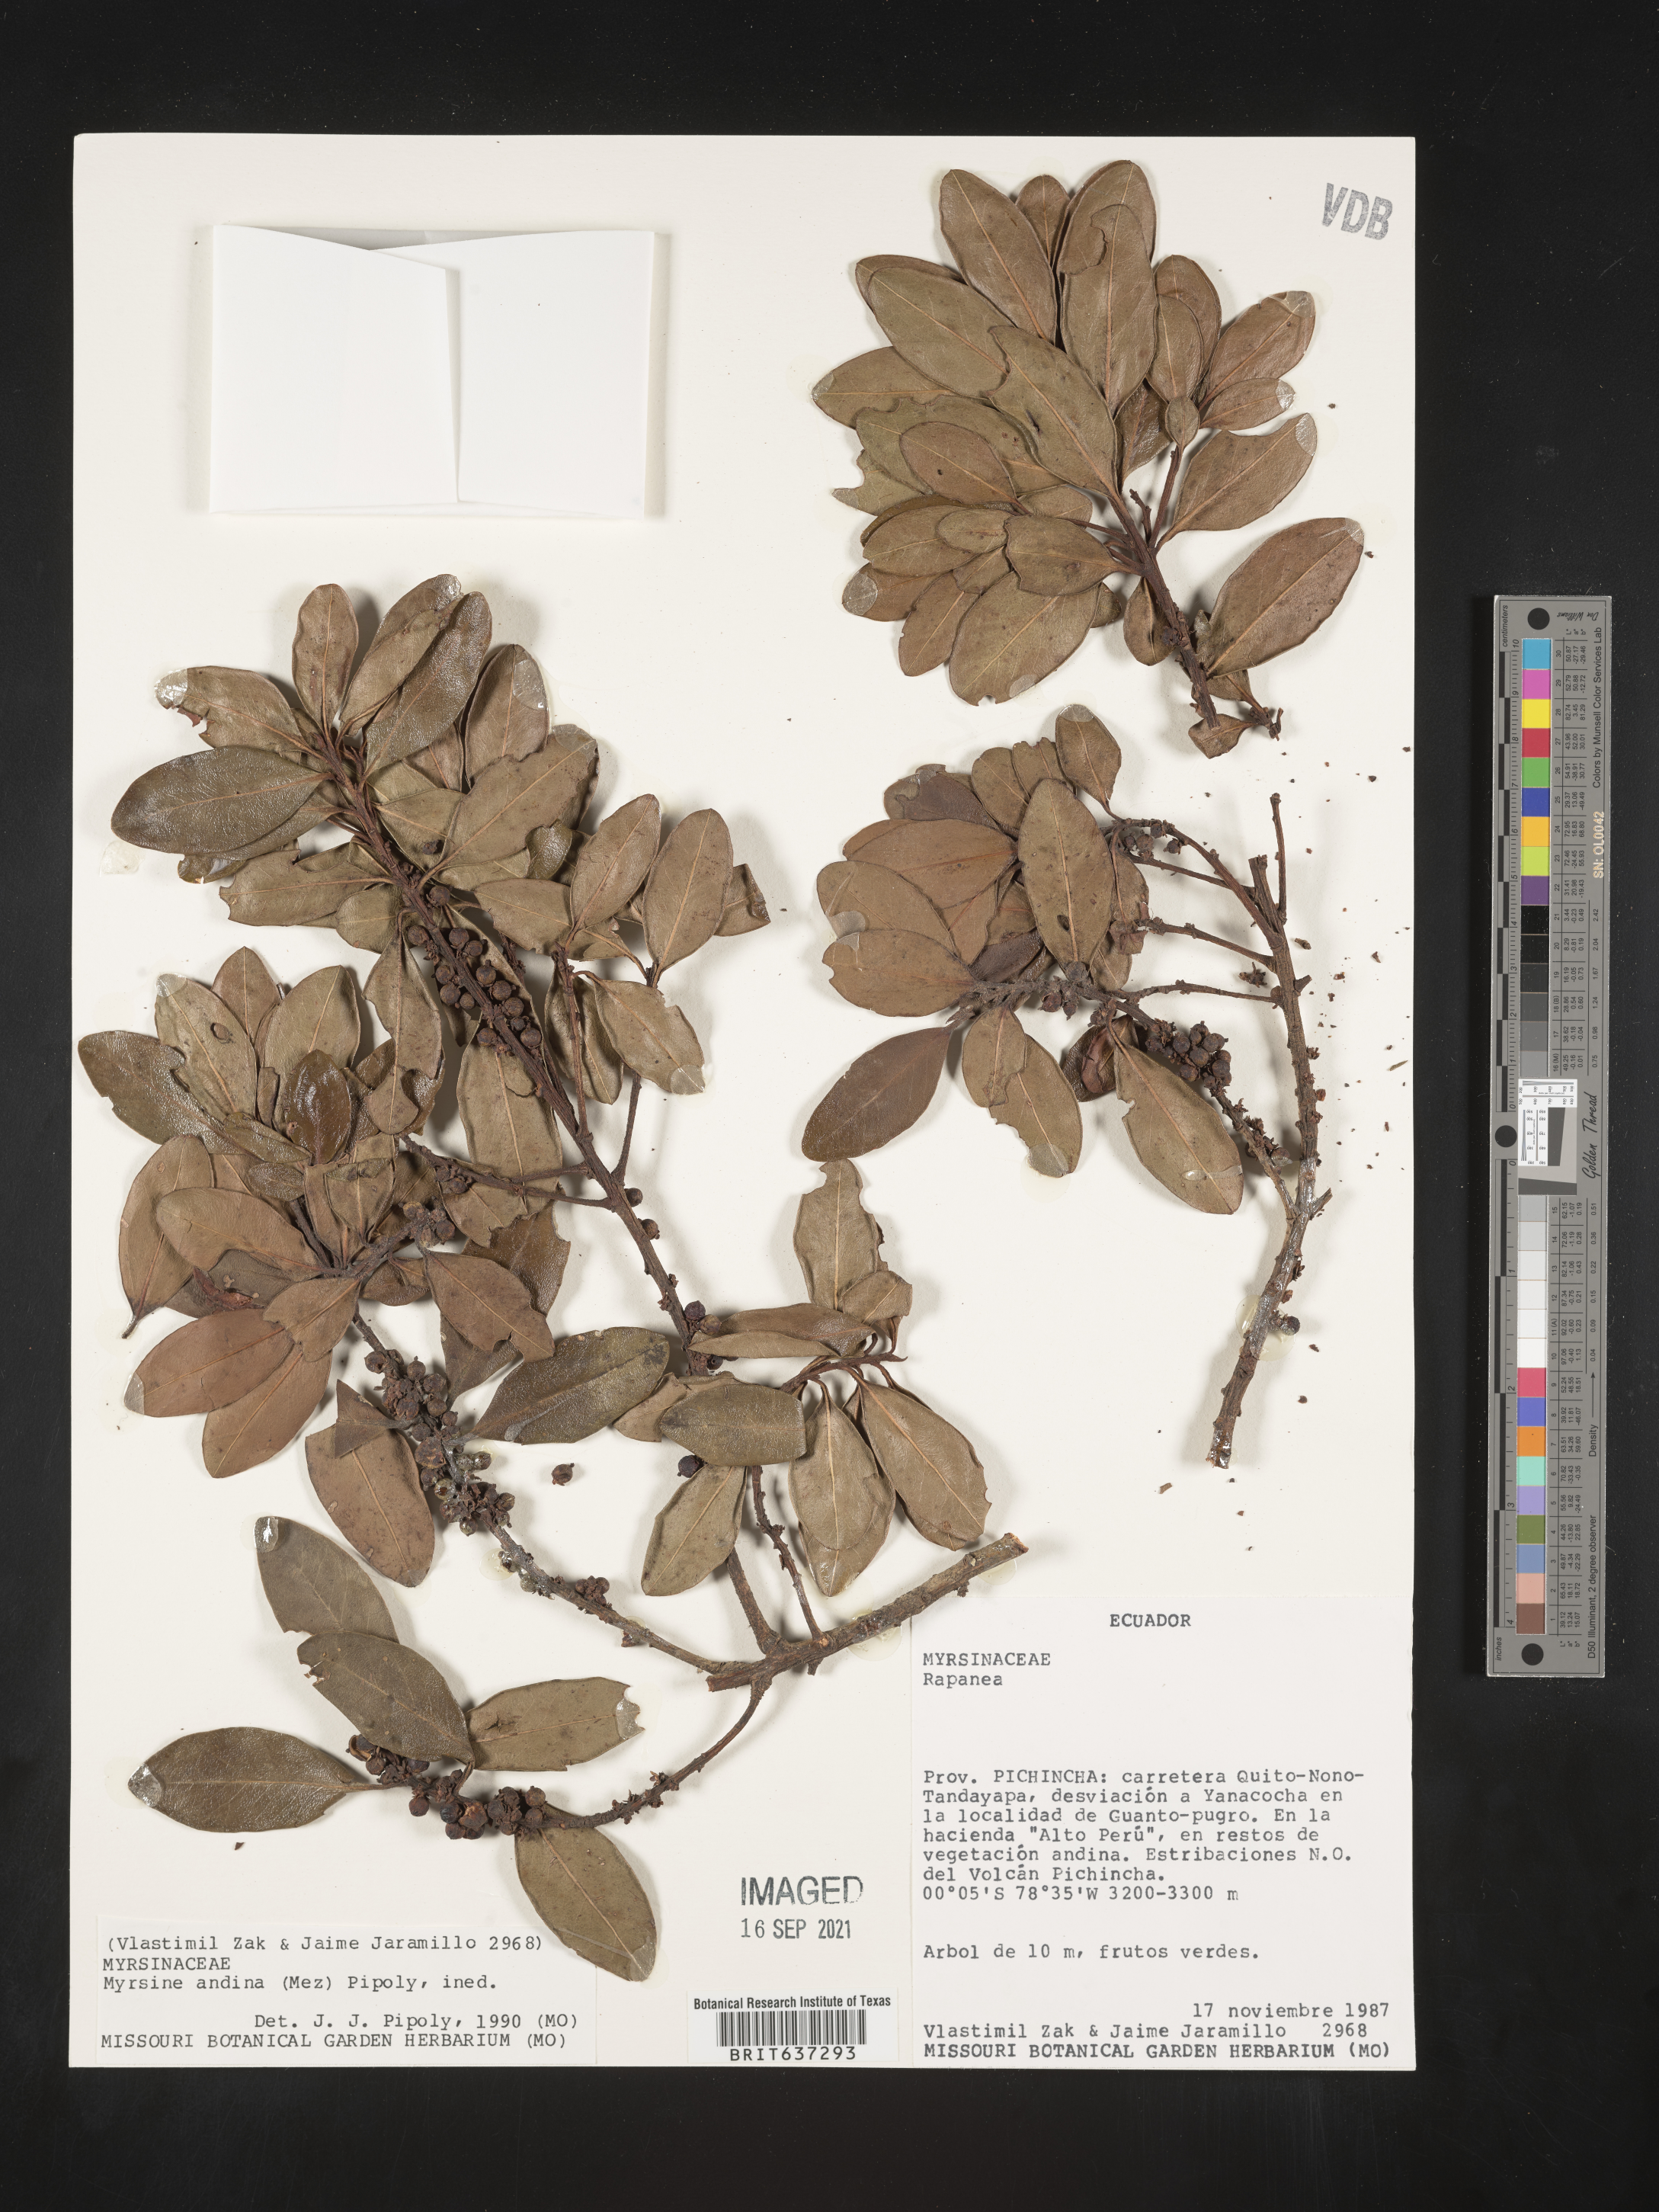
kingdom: Plantae
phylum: Tracheophyta
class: Magnoliopsida
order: Ericales
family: Primulaceae
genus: Myrsine
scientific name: Myrsine
